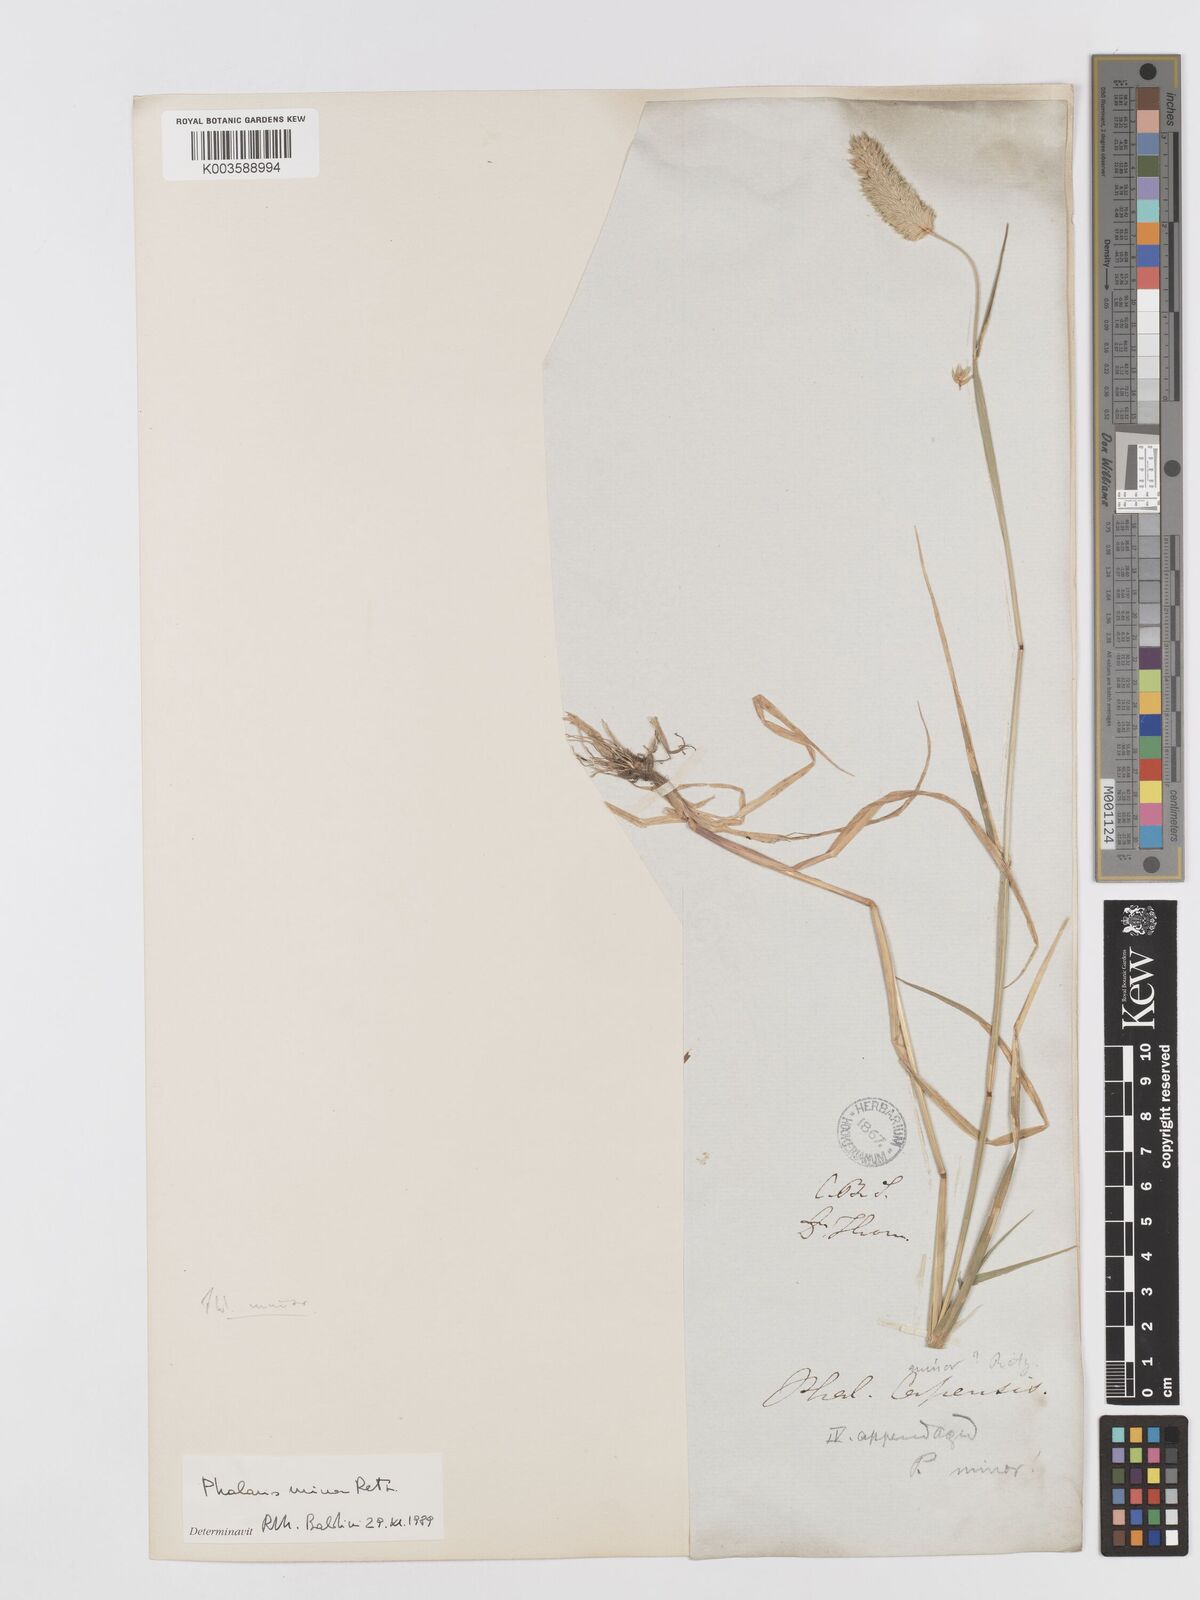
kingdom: Plantae
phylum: Tracheophyta
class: Liliopsida
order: Poales
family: Poaceae
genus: Phalaris
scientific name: Phalaris minor
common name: Littleseed canarygrass
